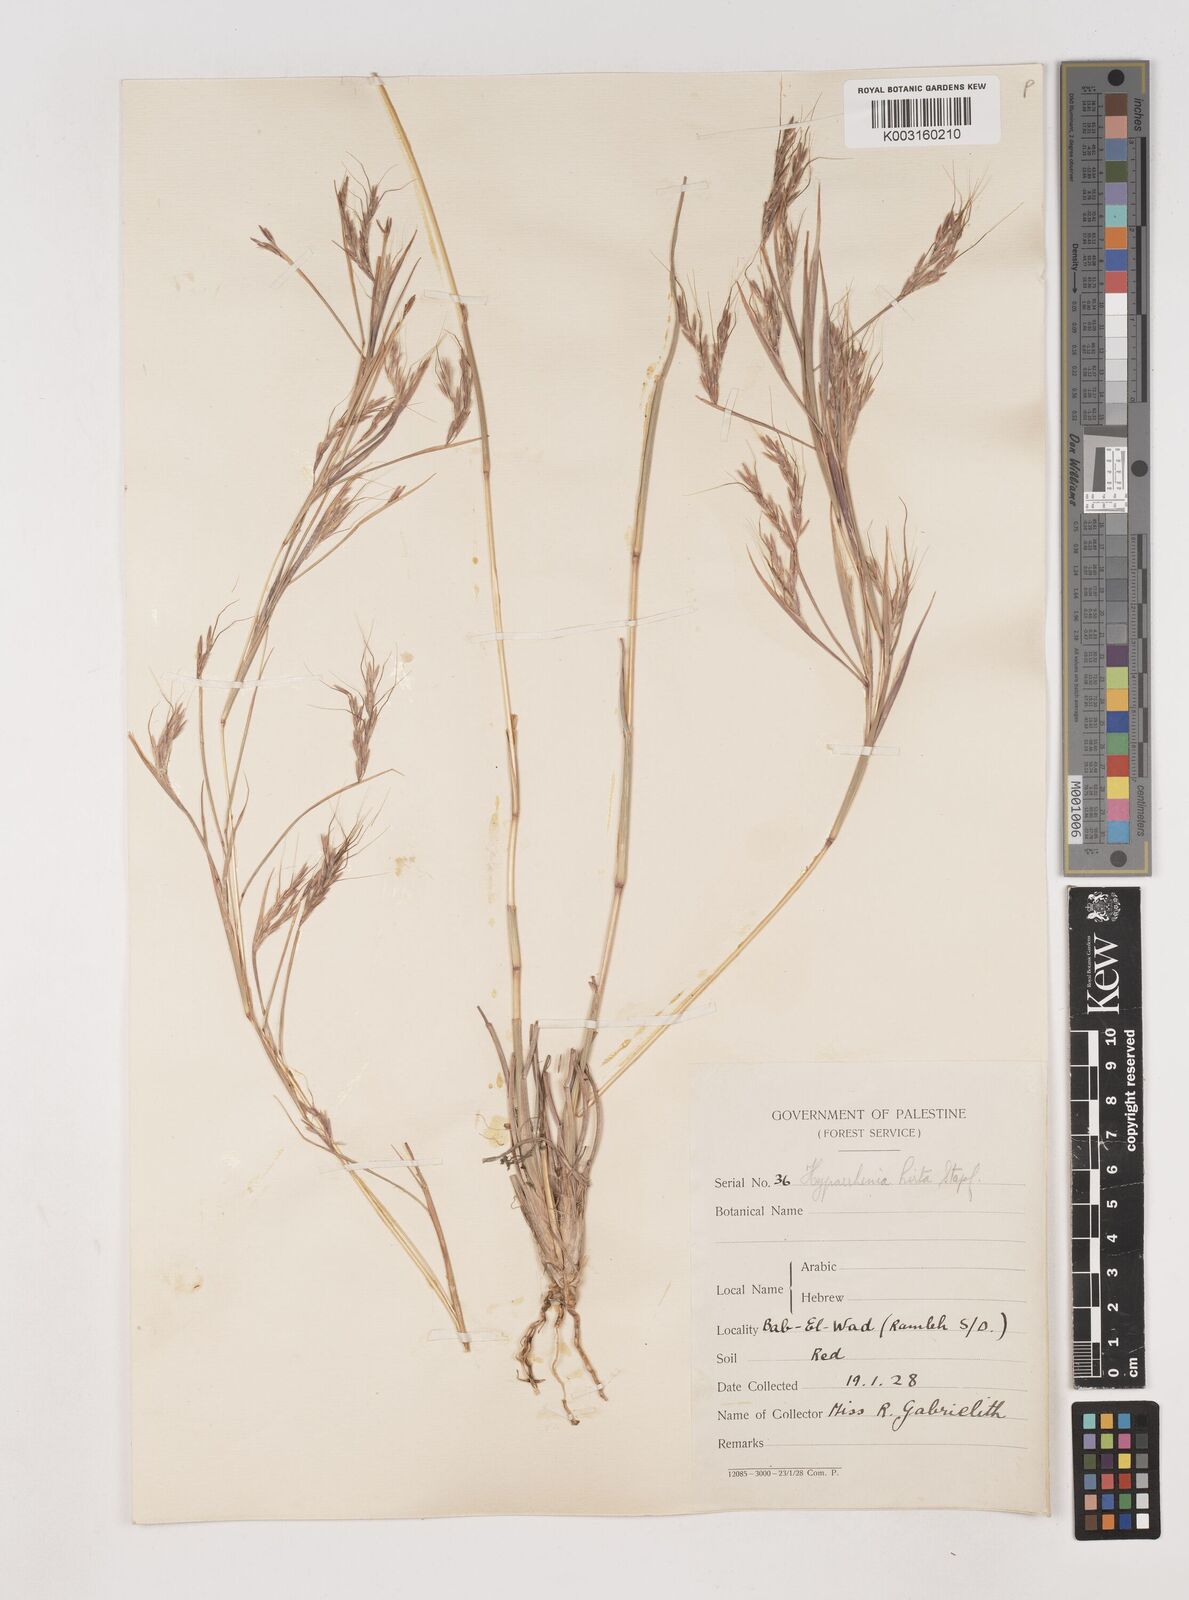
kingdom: Plantae
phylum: Tracheophyta
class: Liliopsida
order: Poales
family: Poaceae
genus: Hyparrhenia
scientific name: Hyparrhenia hirta
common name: Thatching grass
